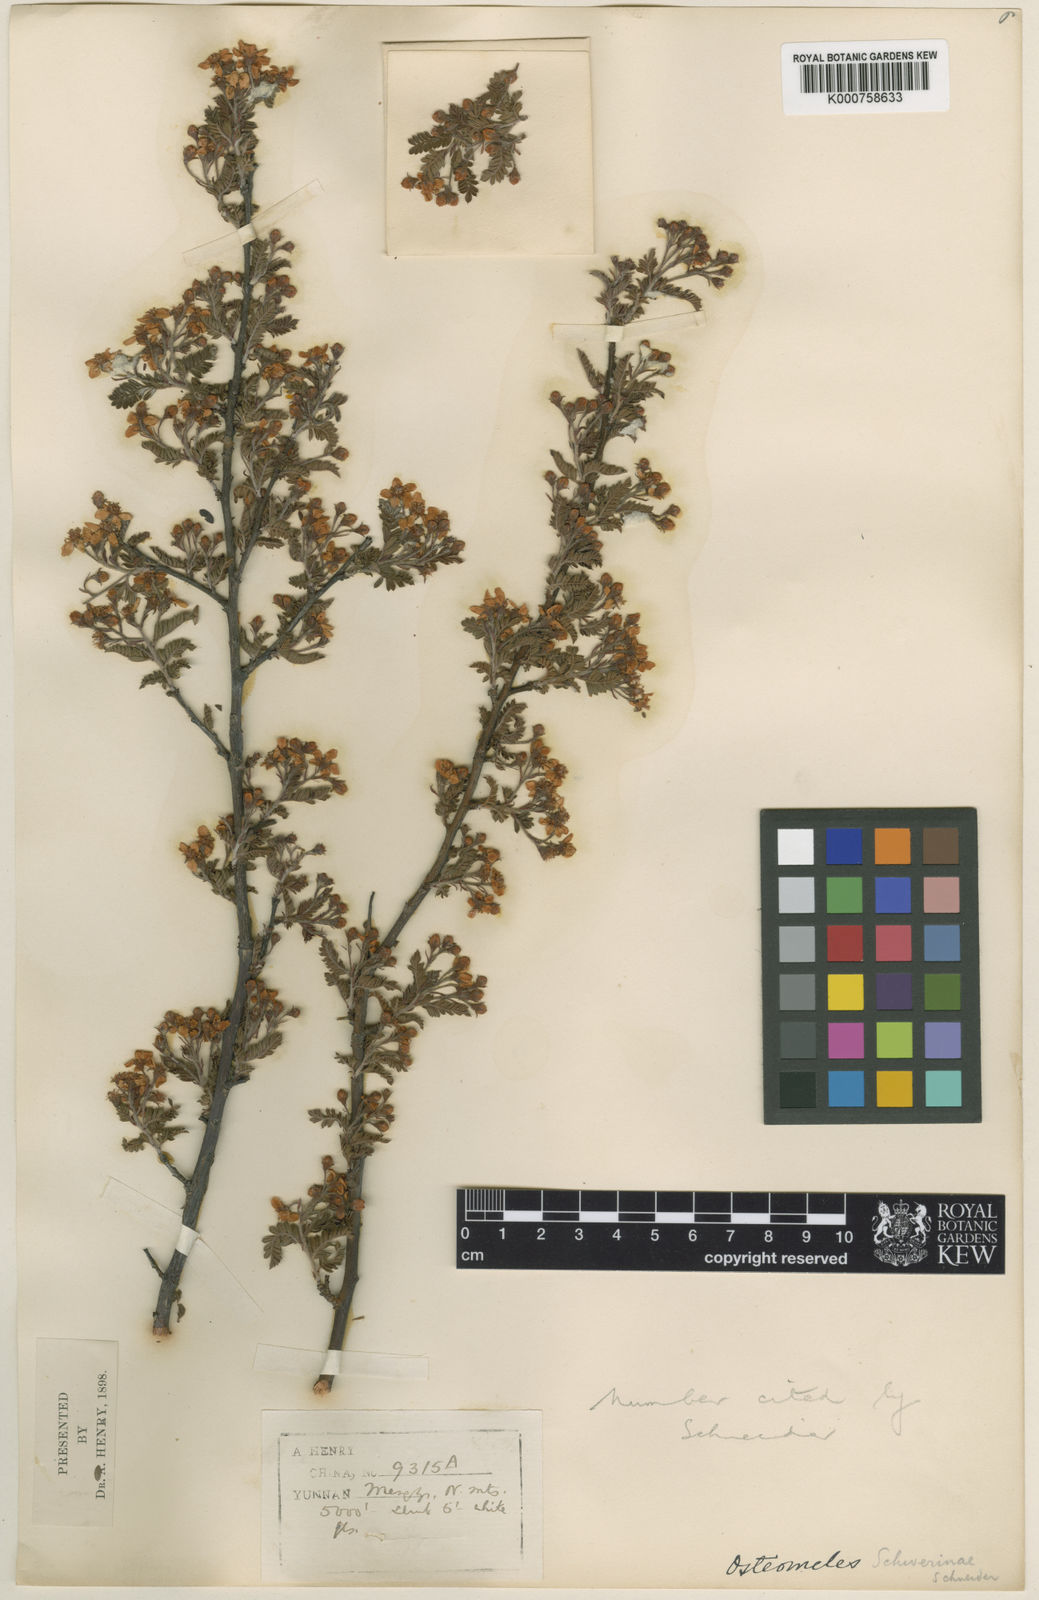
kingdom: Plantae
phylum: Tracheophyta
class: Magnoliopsida
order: Rosales
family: Rosaceae
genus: Osteomeles
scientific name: Osteomeles schwerinae
